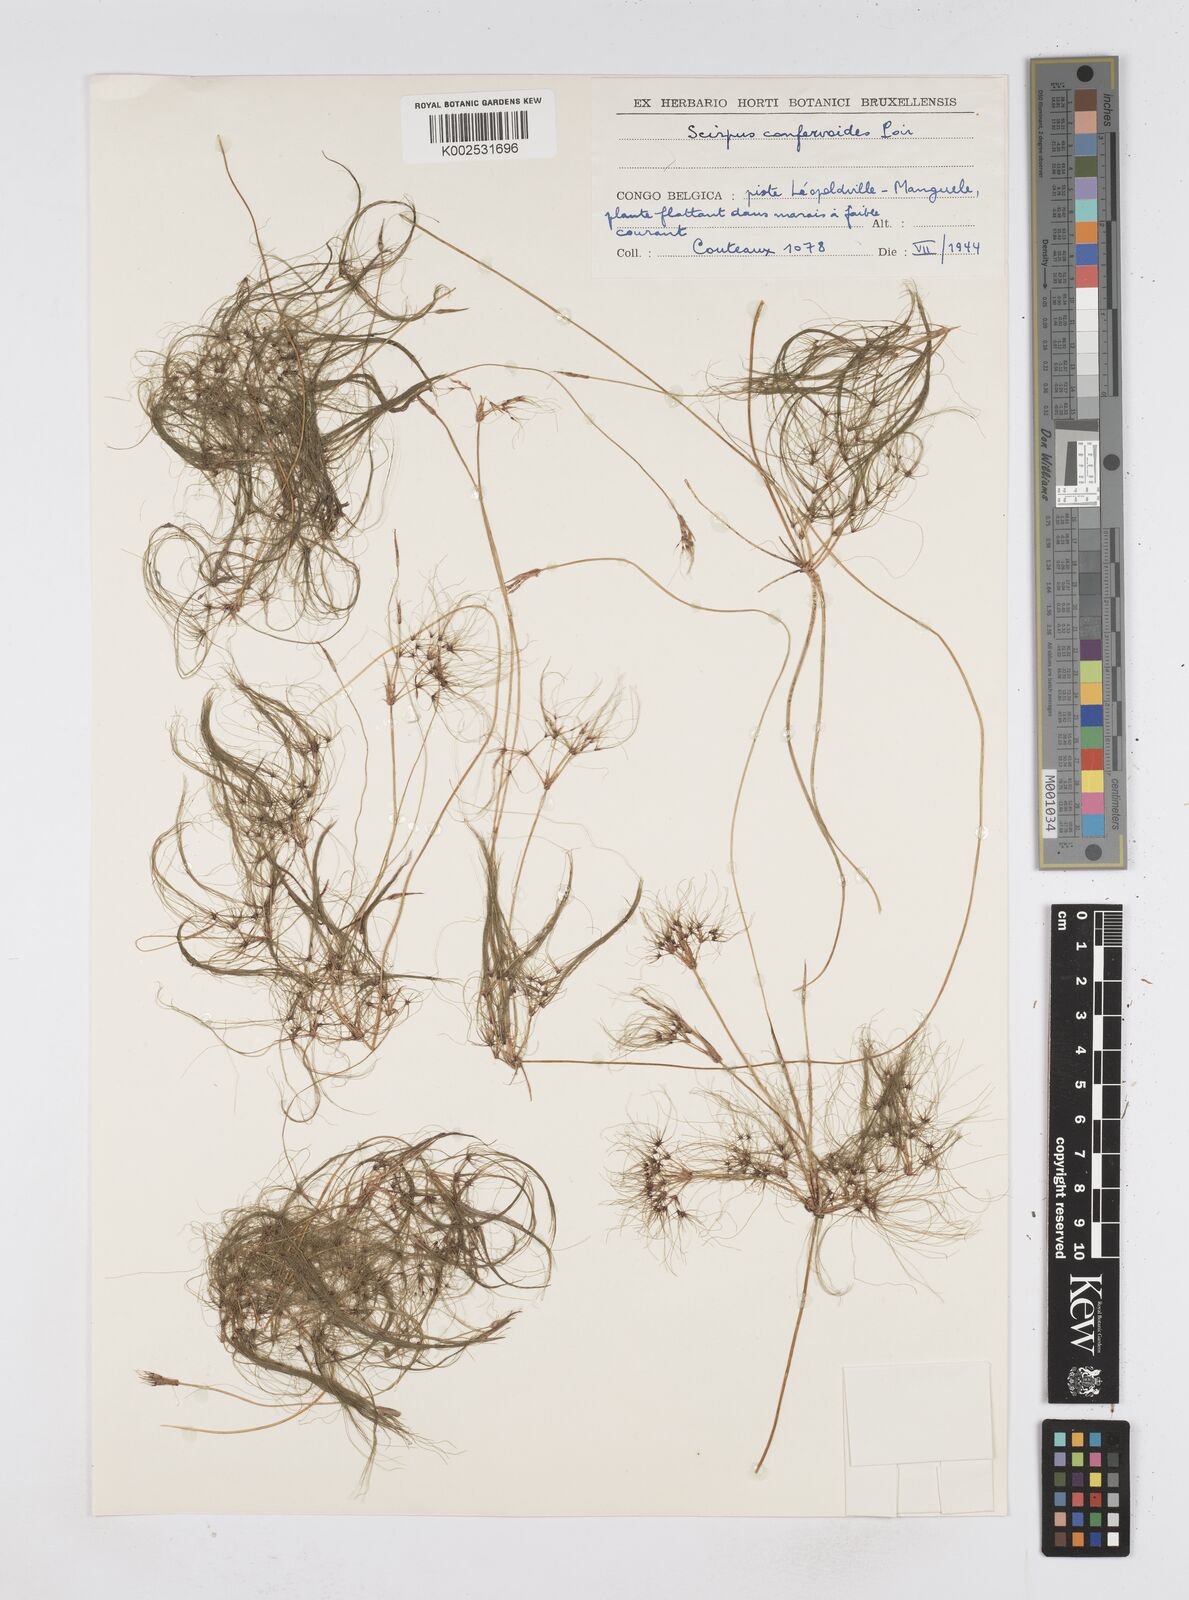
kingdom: Plantae
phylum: Tracheophyta
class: Liliopsida
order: Poales
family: Cyperaceae
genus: Eleocharis
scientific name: Eleocharis confervoides
